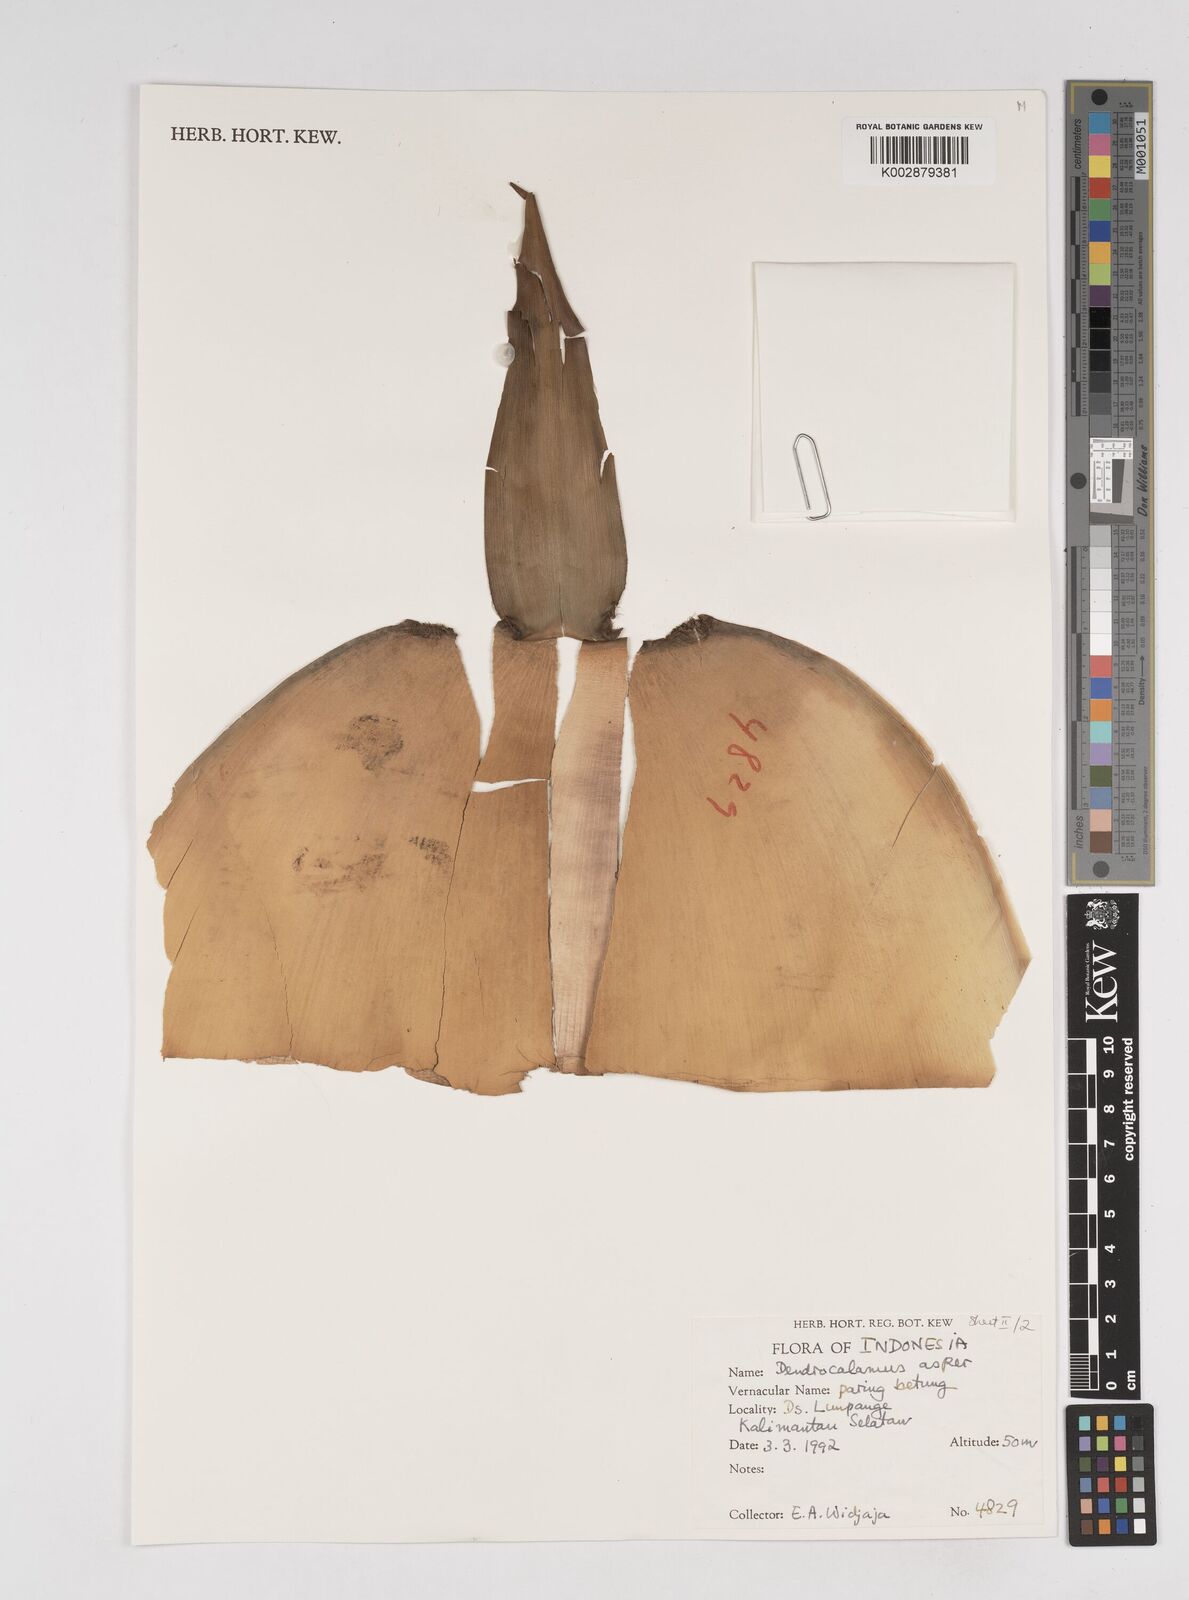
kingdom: Plantae
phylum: Tracheophyta
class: Liliopsida
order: Poales
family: Poaceae
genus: Dendrocalamus
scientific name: Dendrocalamus asper
